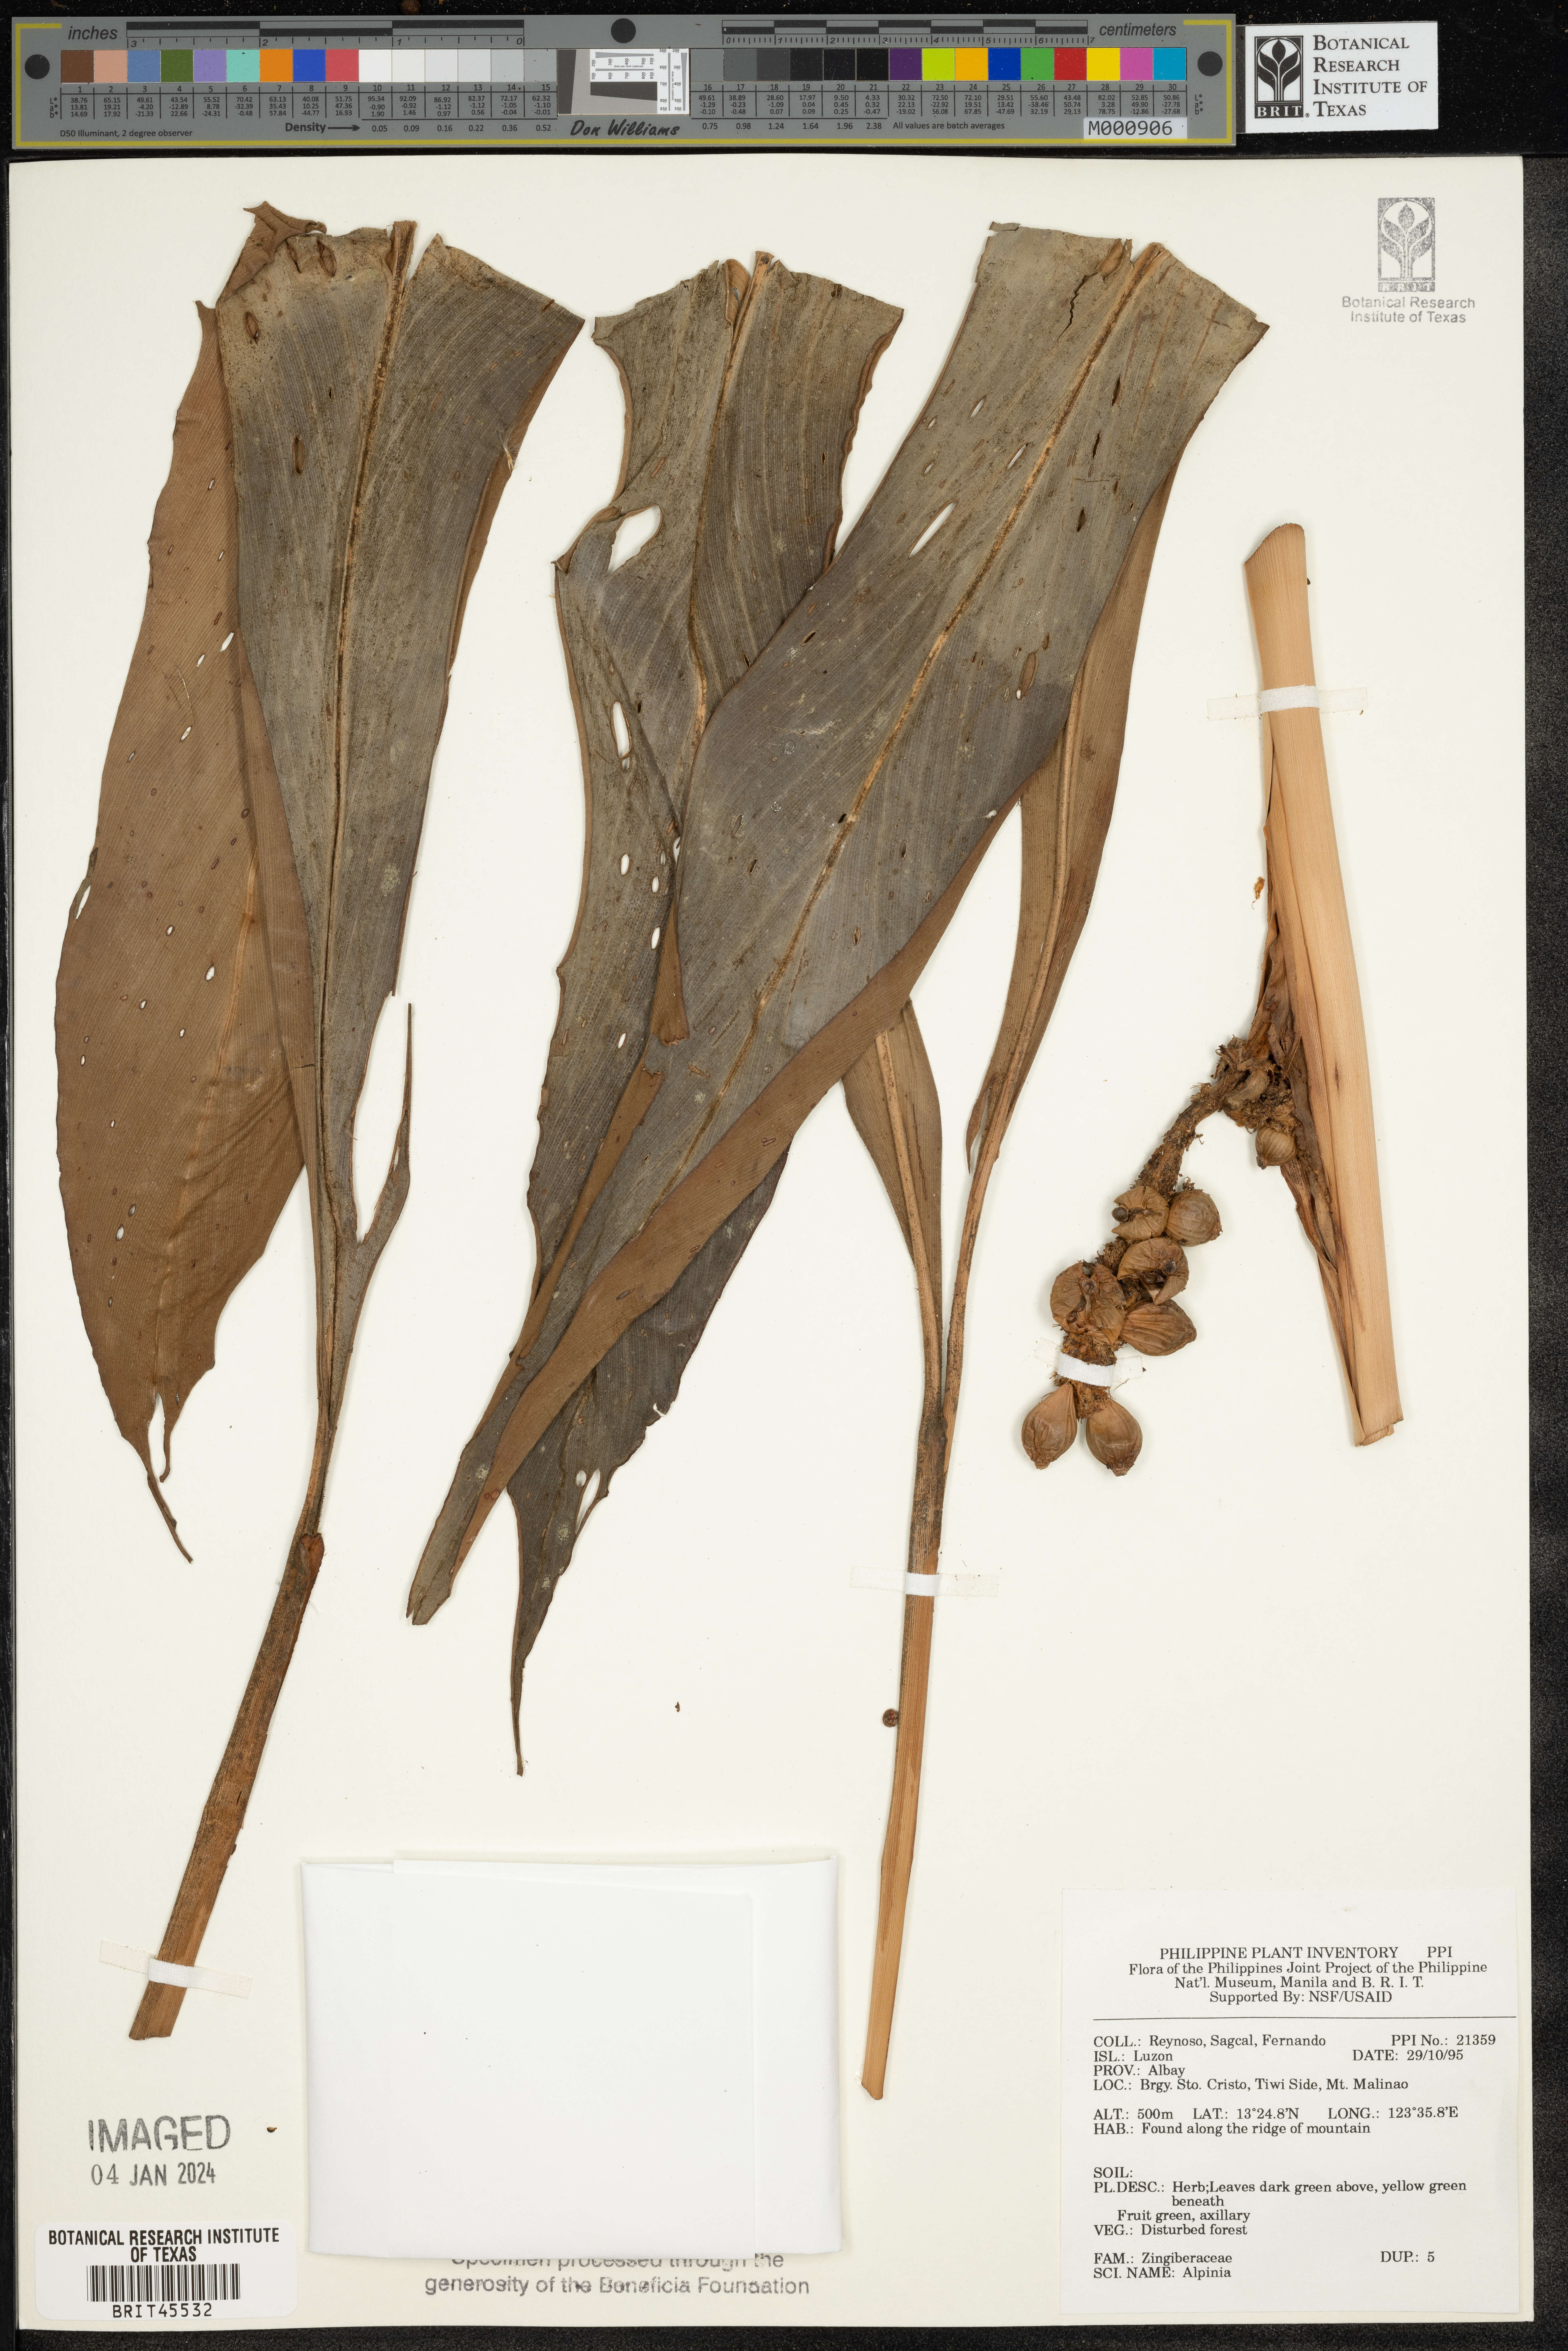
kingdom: Plantae
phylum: Tracheophyta
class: Liliopsida
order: Zingiberales
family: Zingiberaceae
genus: Alpinia
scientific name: Alpinia
